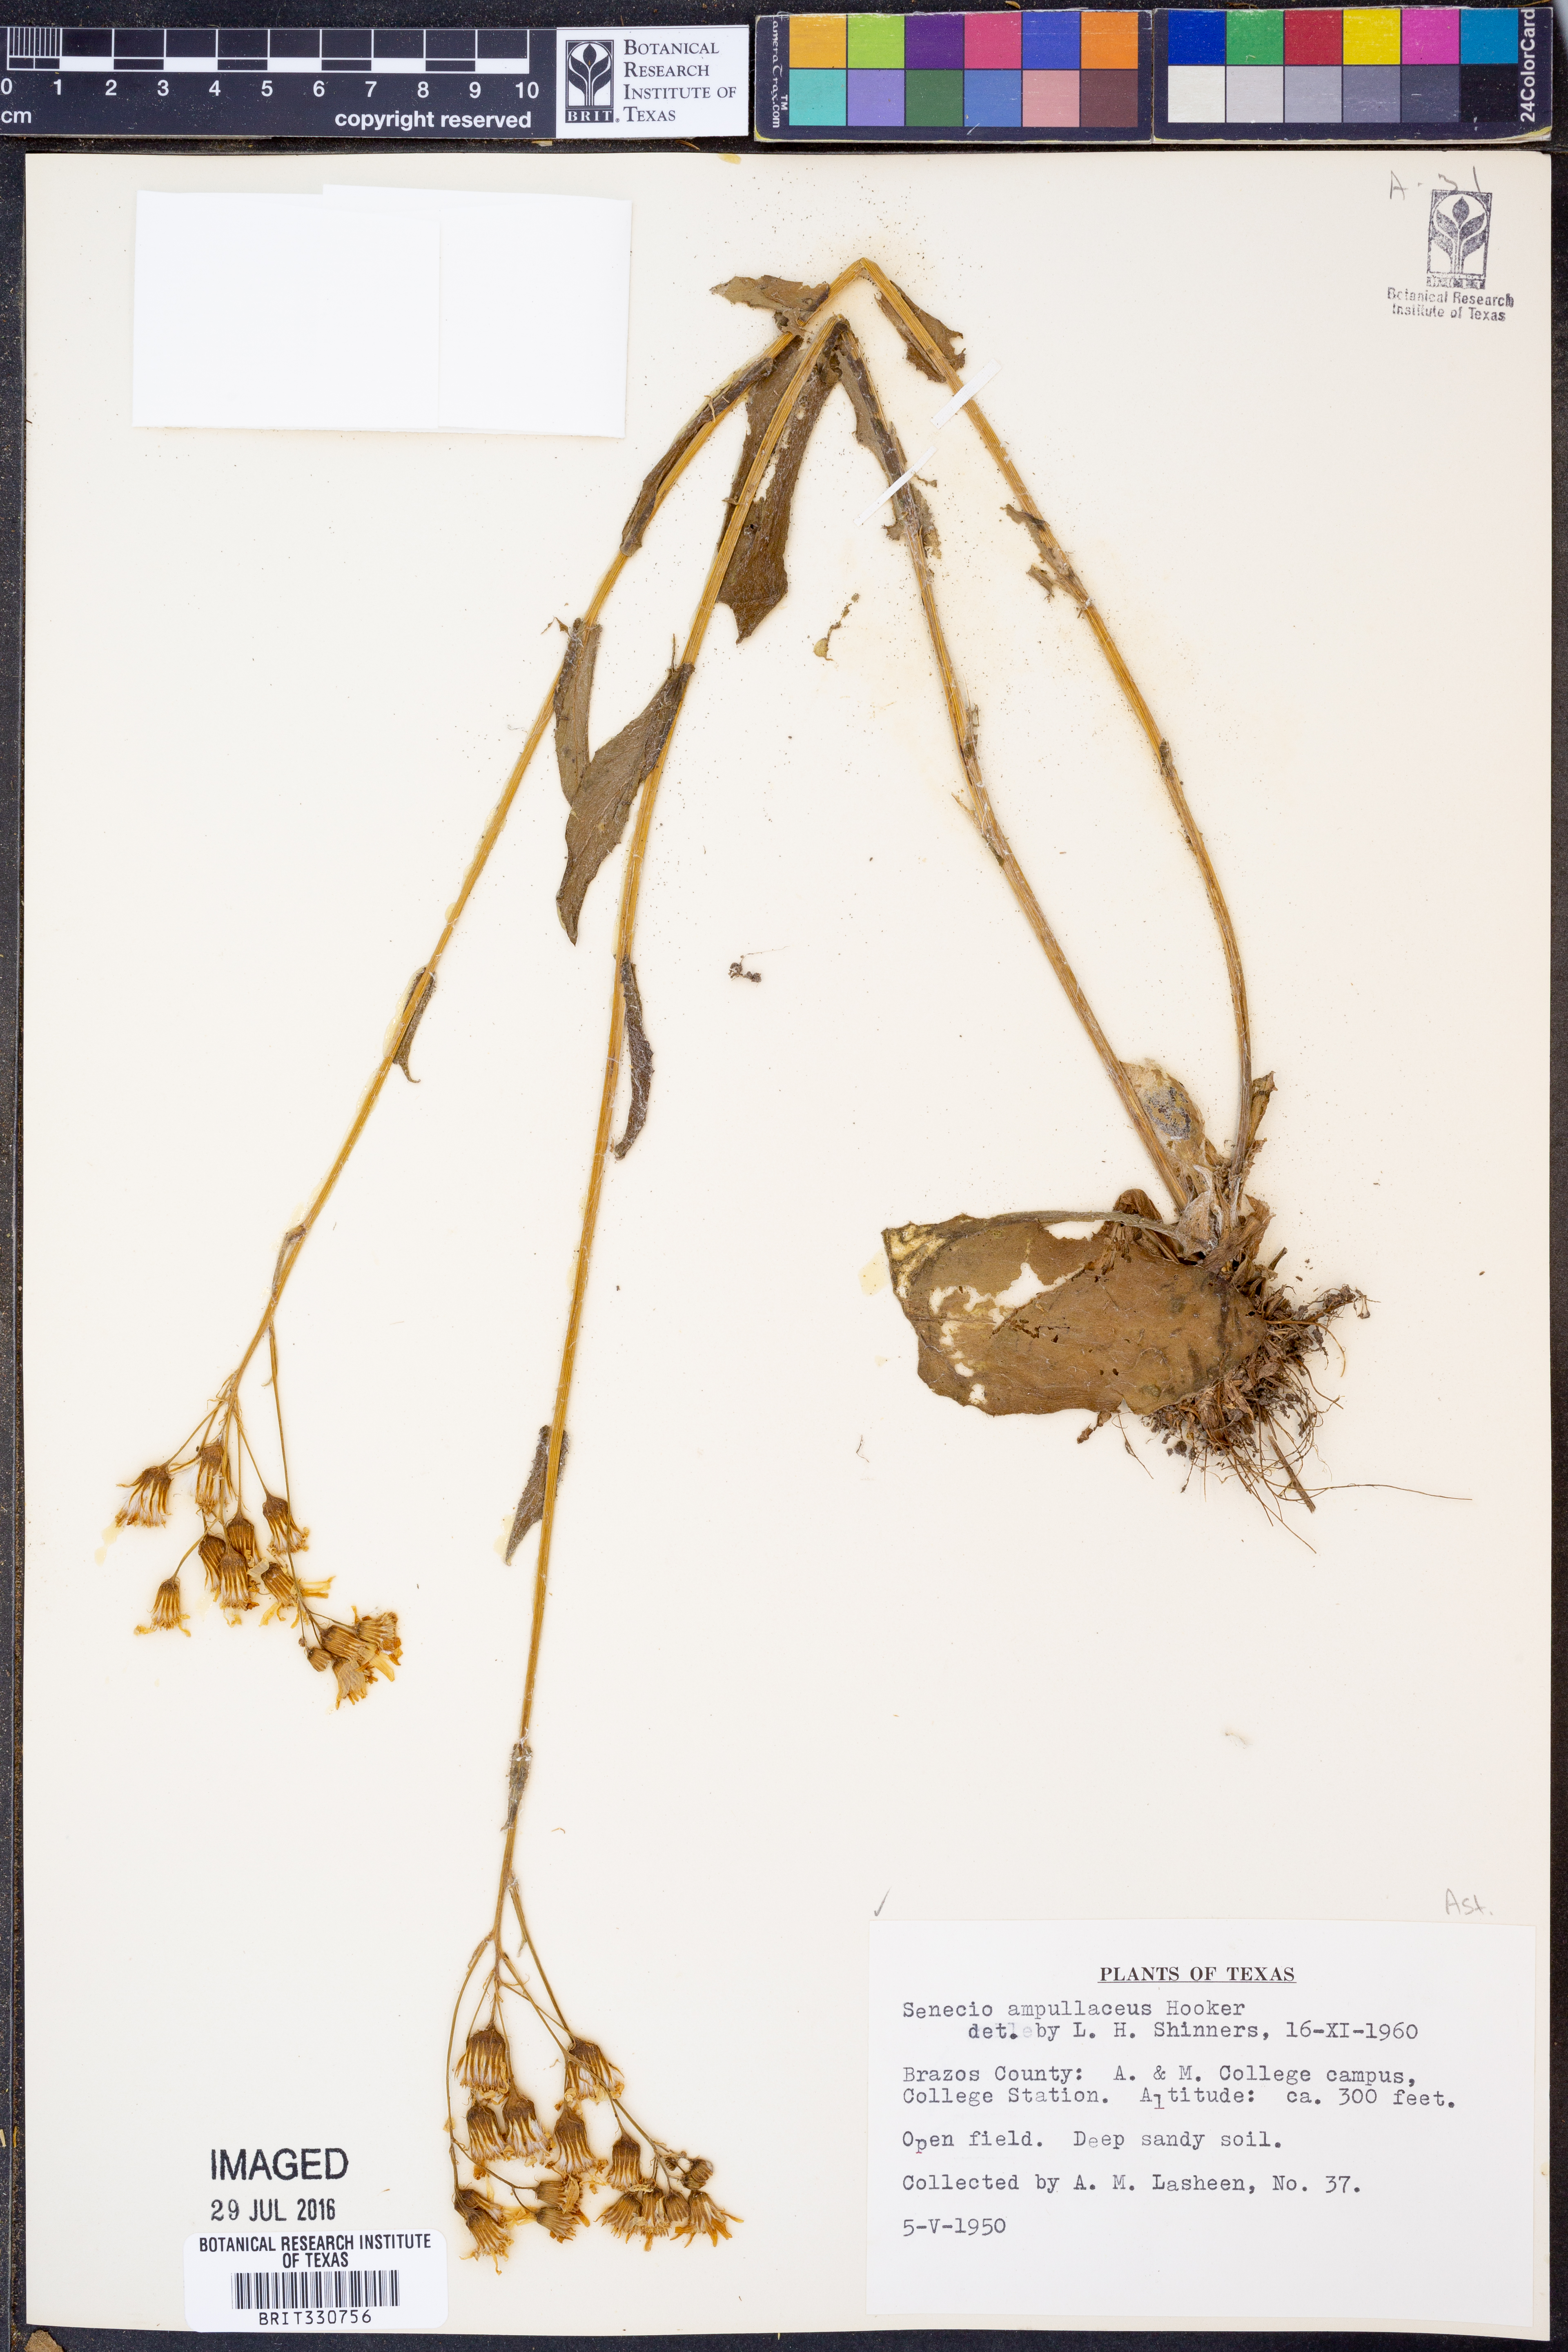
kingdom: Plantae
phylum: Tracheophyta
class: Magnoliopsida
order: Asterales
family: Asteraceae
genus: Senecio
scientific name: Senecio ampullaceus
